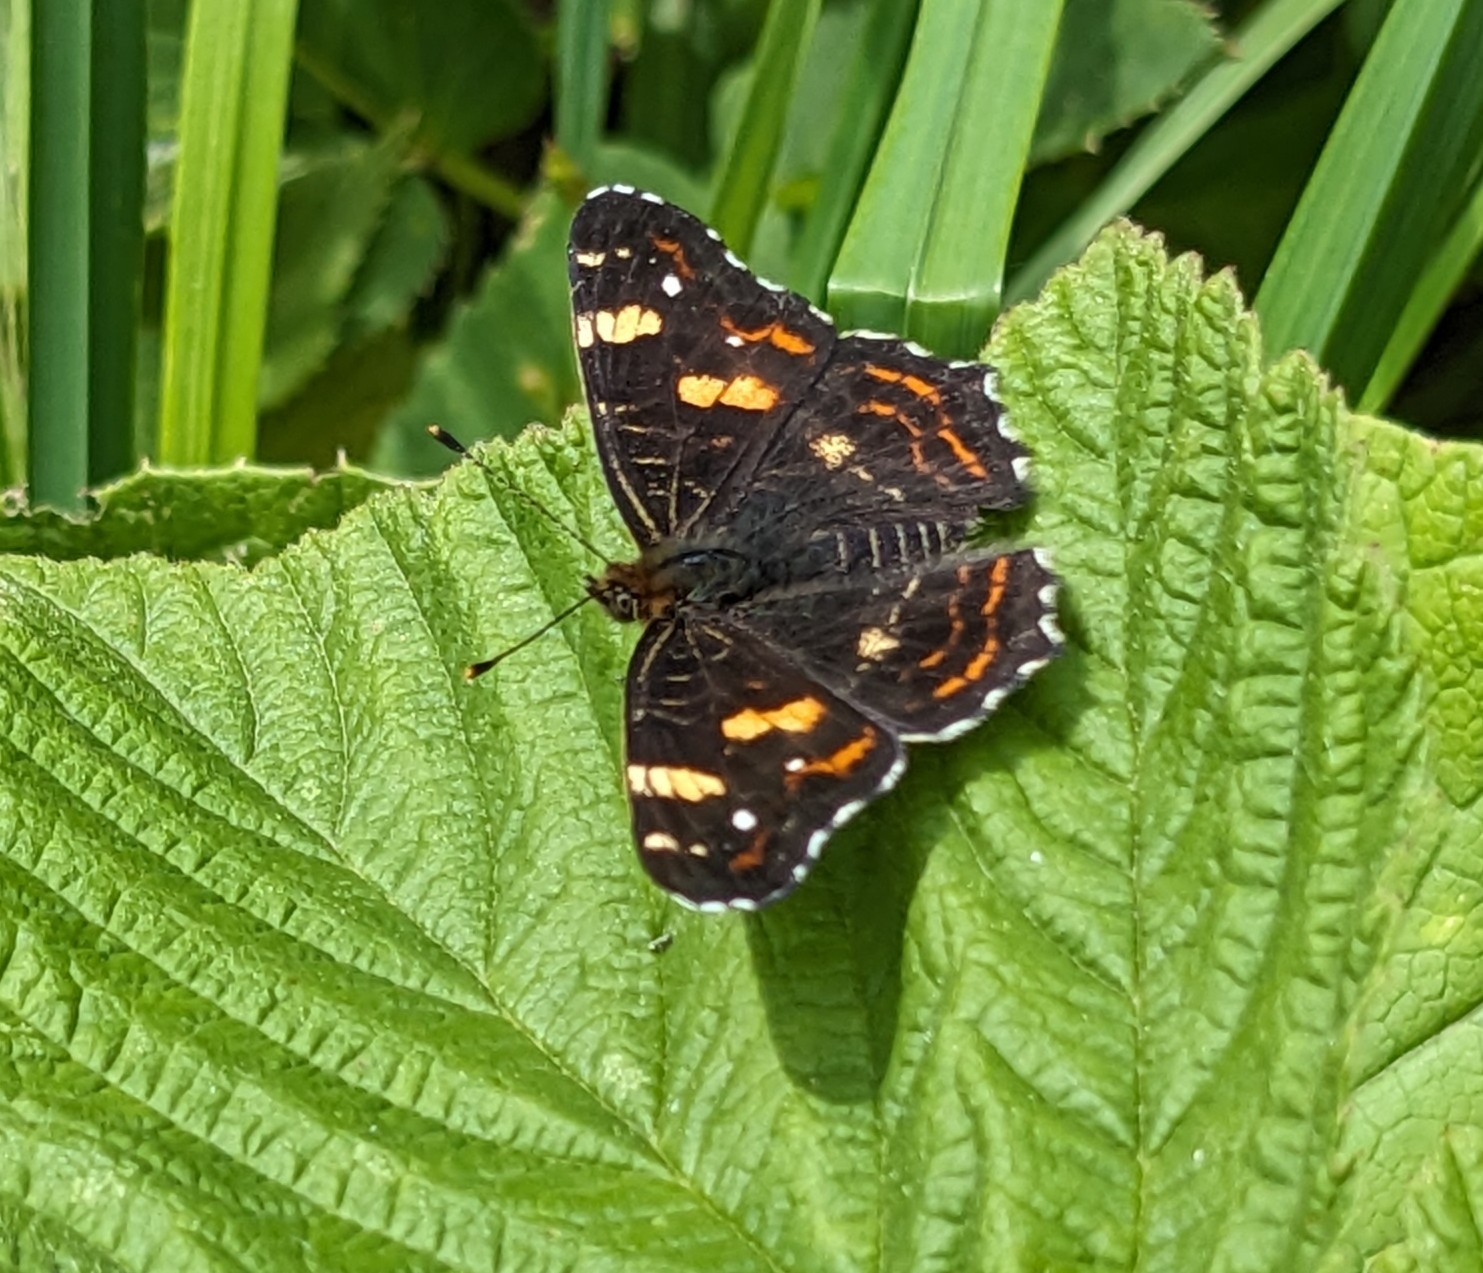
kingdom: Animalia
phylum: Arthropoda
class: Insecta
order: Lepidoptera
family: Nymphalidae
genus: Araschnia
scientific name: Araschnia levana
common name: Nældesommerfugl
